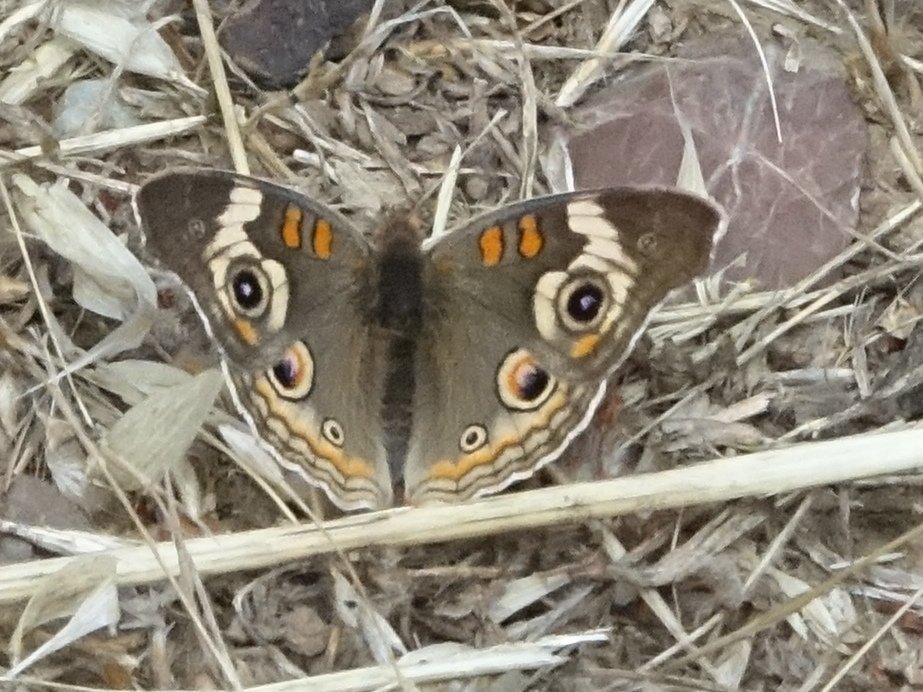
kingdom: Animalia
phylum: Arthropoda
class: Insecta
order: Lepidoptera
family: Nymphalidae
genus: Junonia
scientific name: Junonia coenia
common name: Common Buckeye
